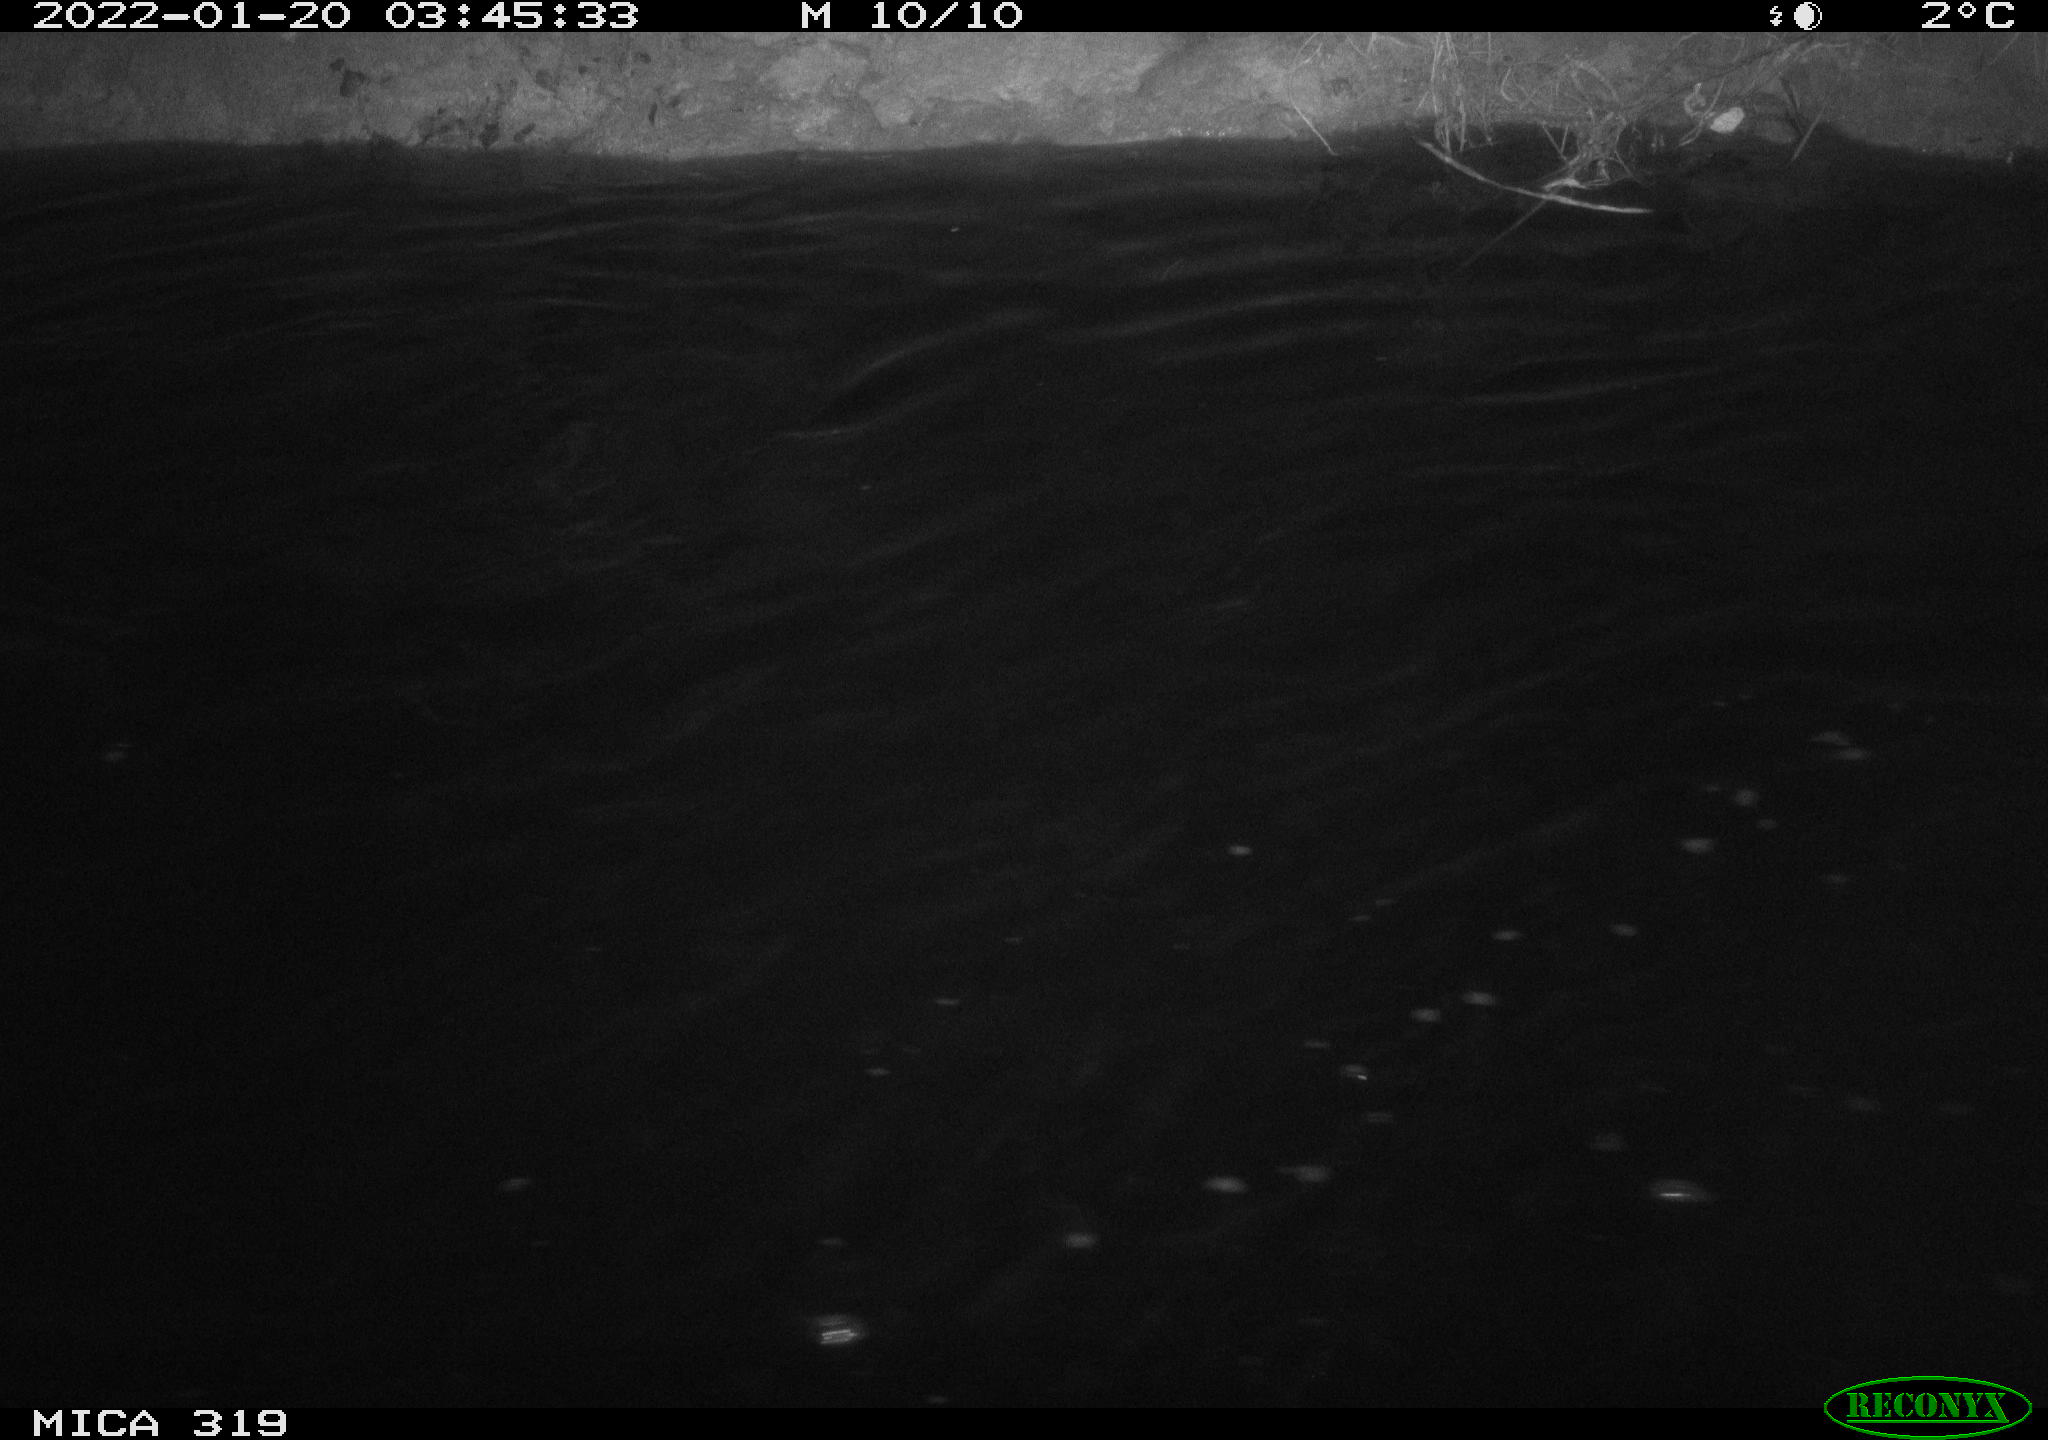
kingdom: Animalia
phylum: Chordata
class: Aves
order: Anseriformes
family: Anatidae
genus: Anas
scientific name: Anas platyrhynchos
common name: Mallard
